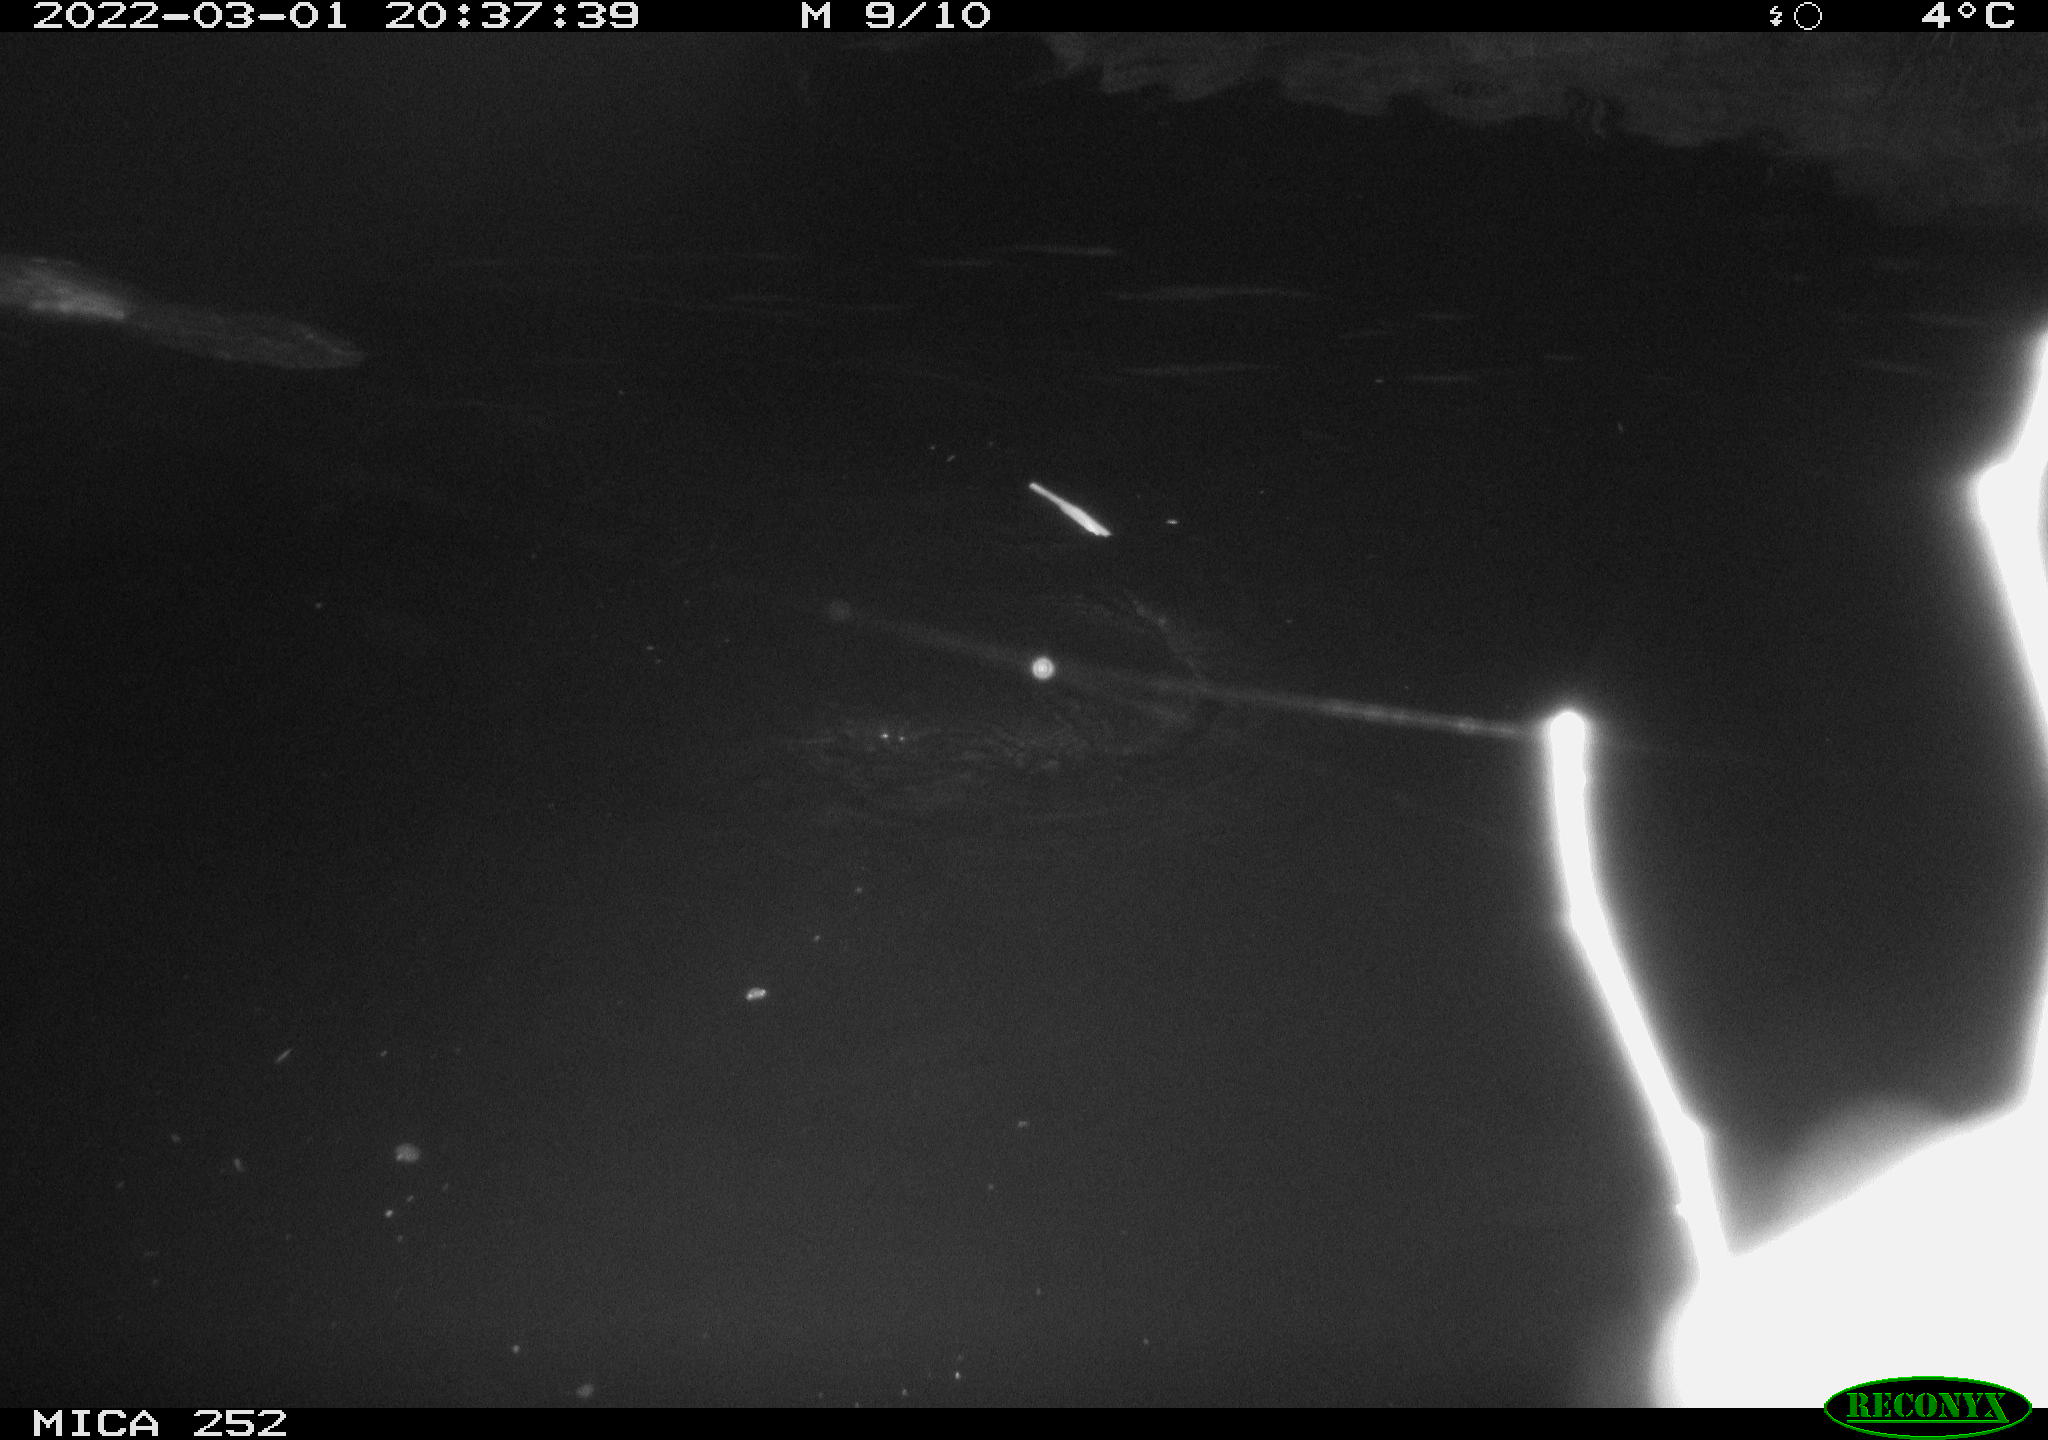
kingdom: Animalia
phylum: Chordata
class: Mammalia
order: Rodentia
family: Castoridae
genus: Castor
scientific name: Castor fiber
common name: Eurasian beaver
